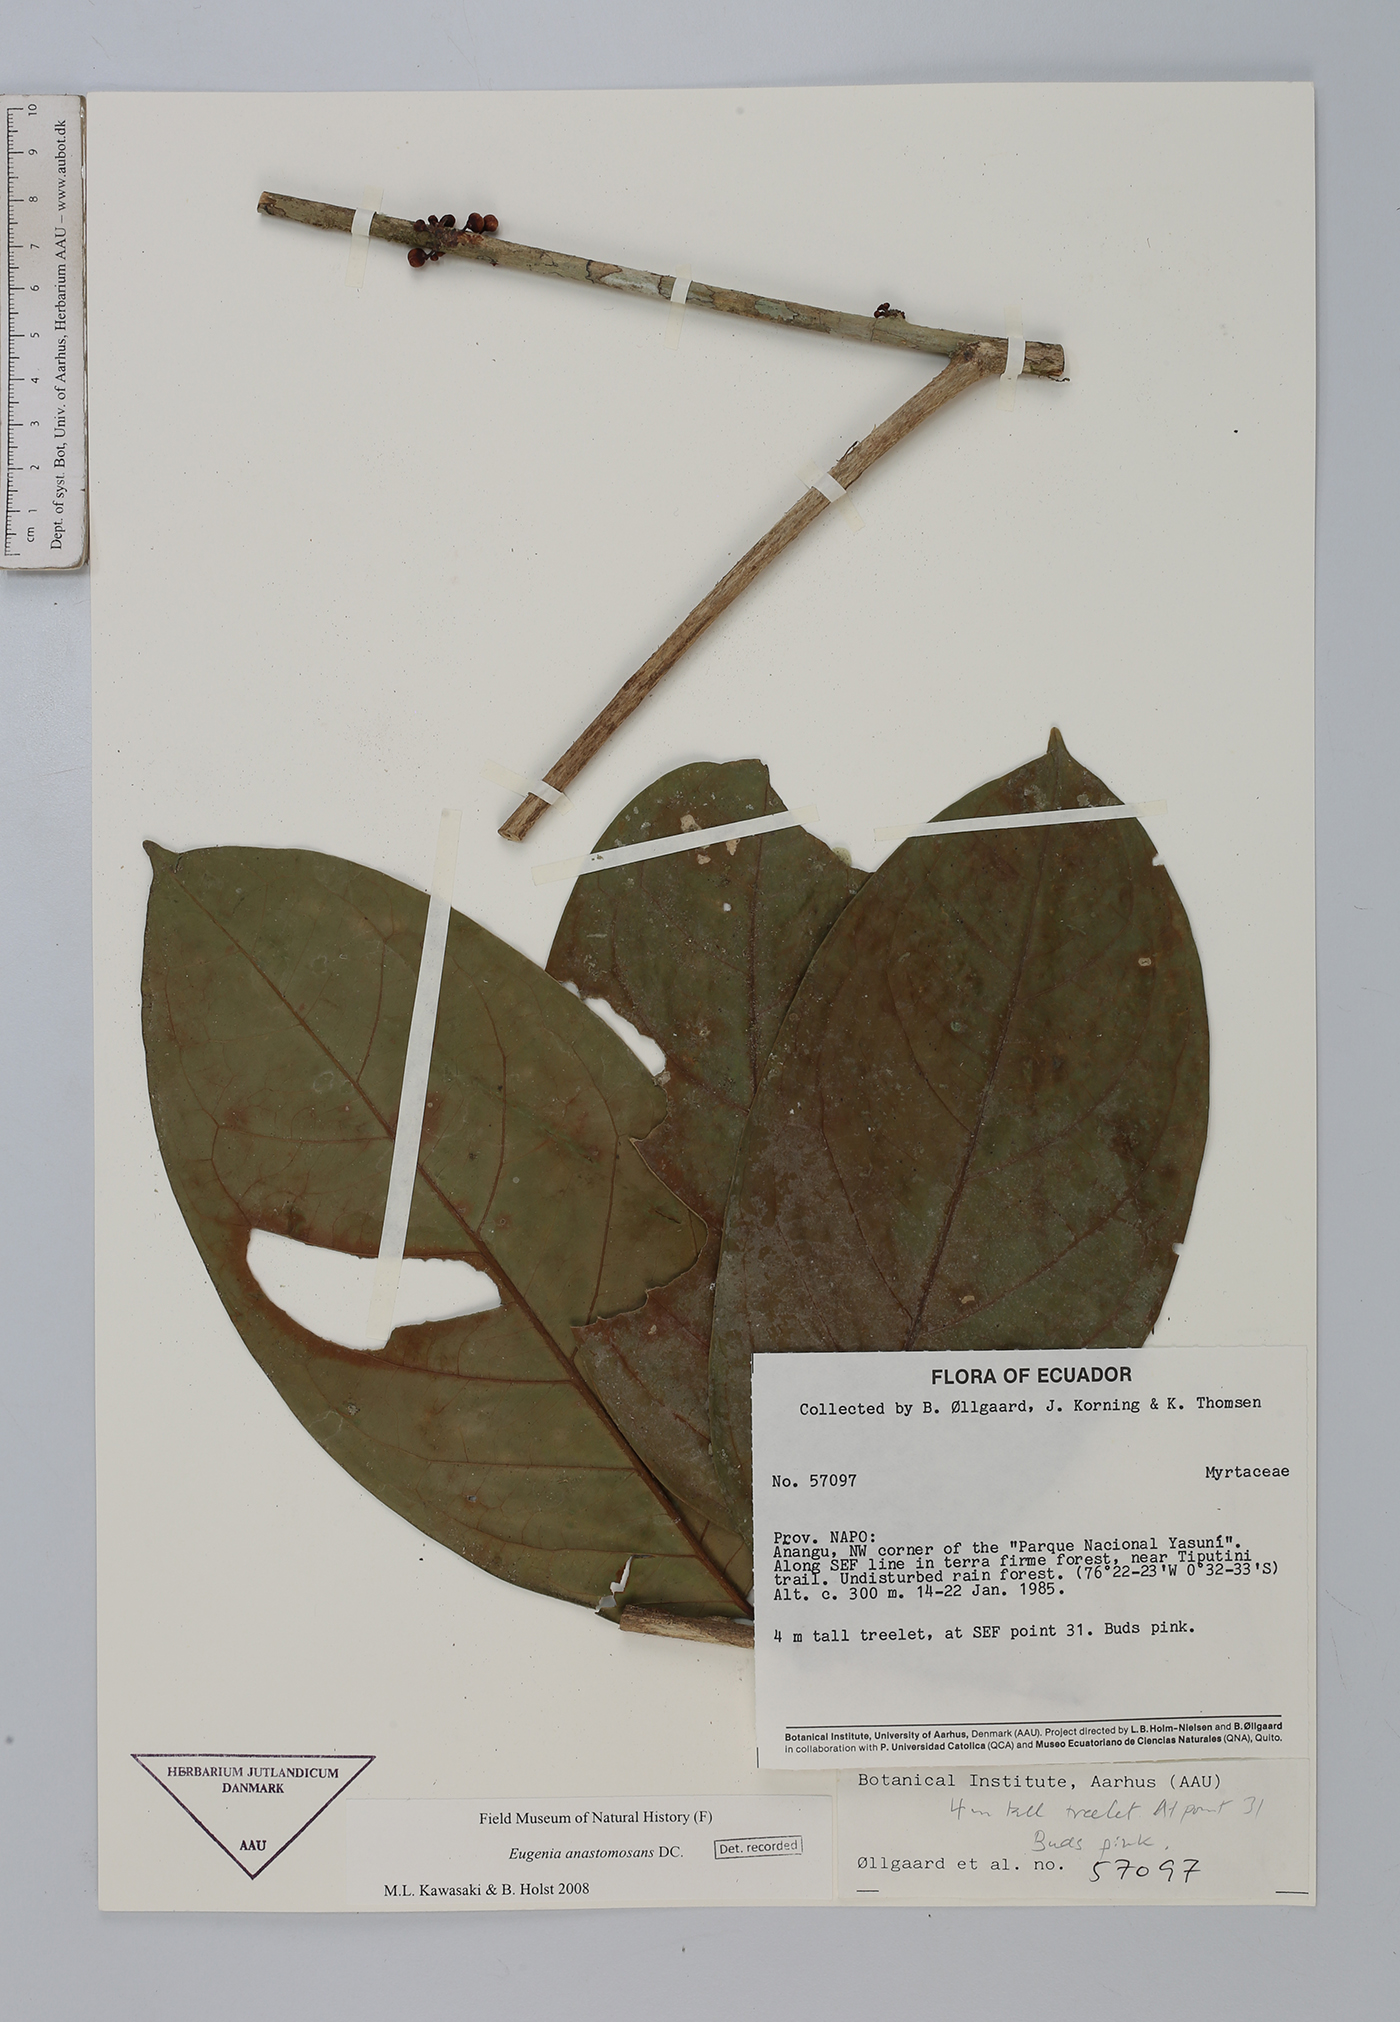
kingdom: Plantae
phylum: Tracheophyta
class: Magnoliopsida
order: Myrtales
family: Myrtaceae
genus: Eugenia
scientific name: Eugenia anastomosans
